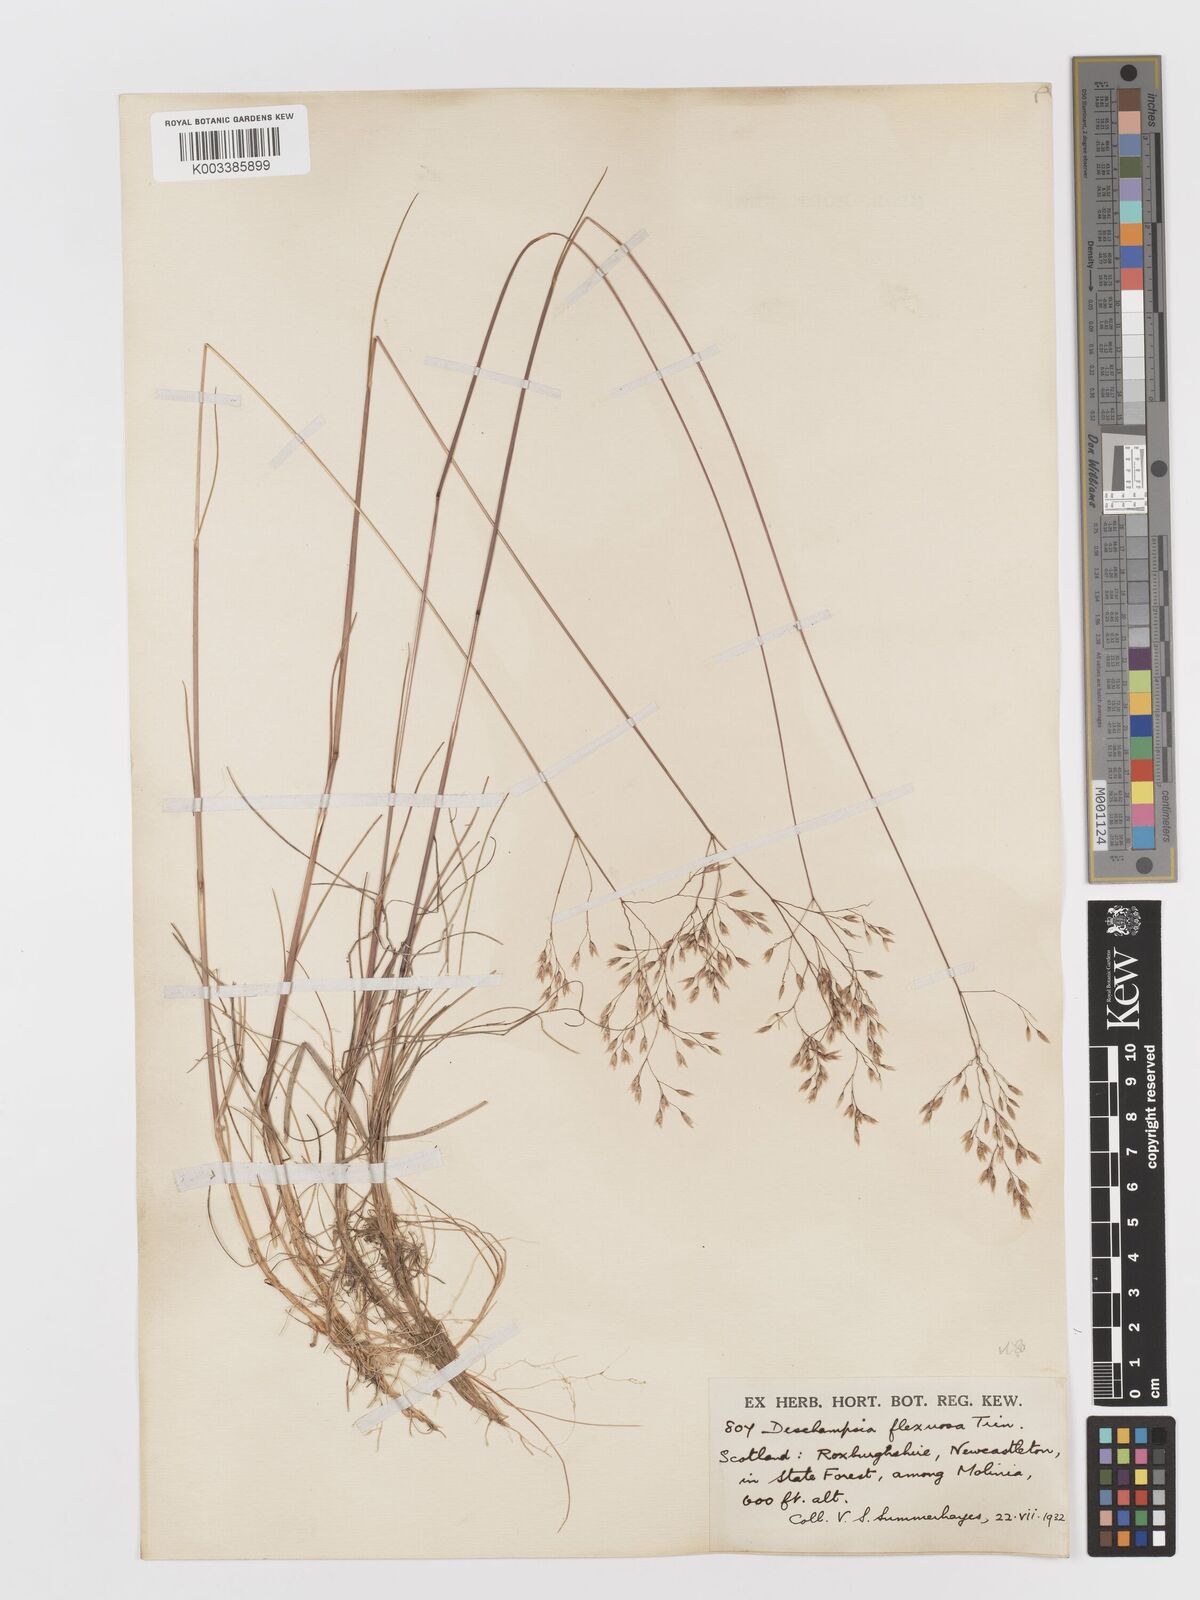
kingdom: Plantae
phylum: Tracheophyta
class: Liliopsida
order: Poales
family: Poaceae
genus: Avenella
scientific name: Avenella flexuosa
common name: Wavy hairgrass
